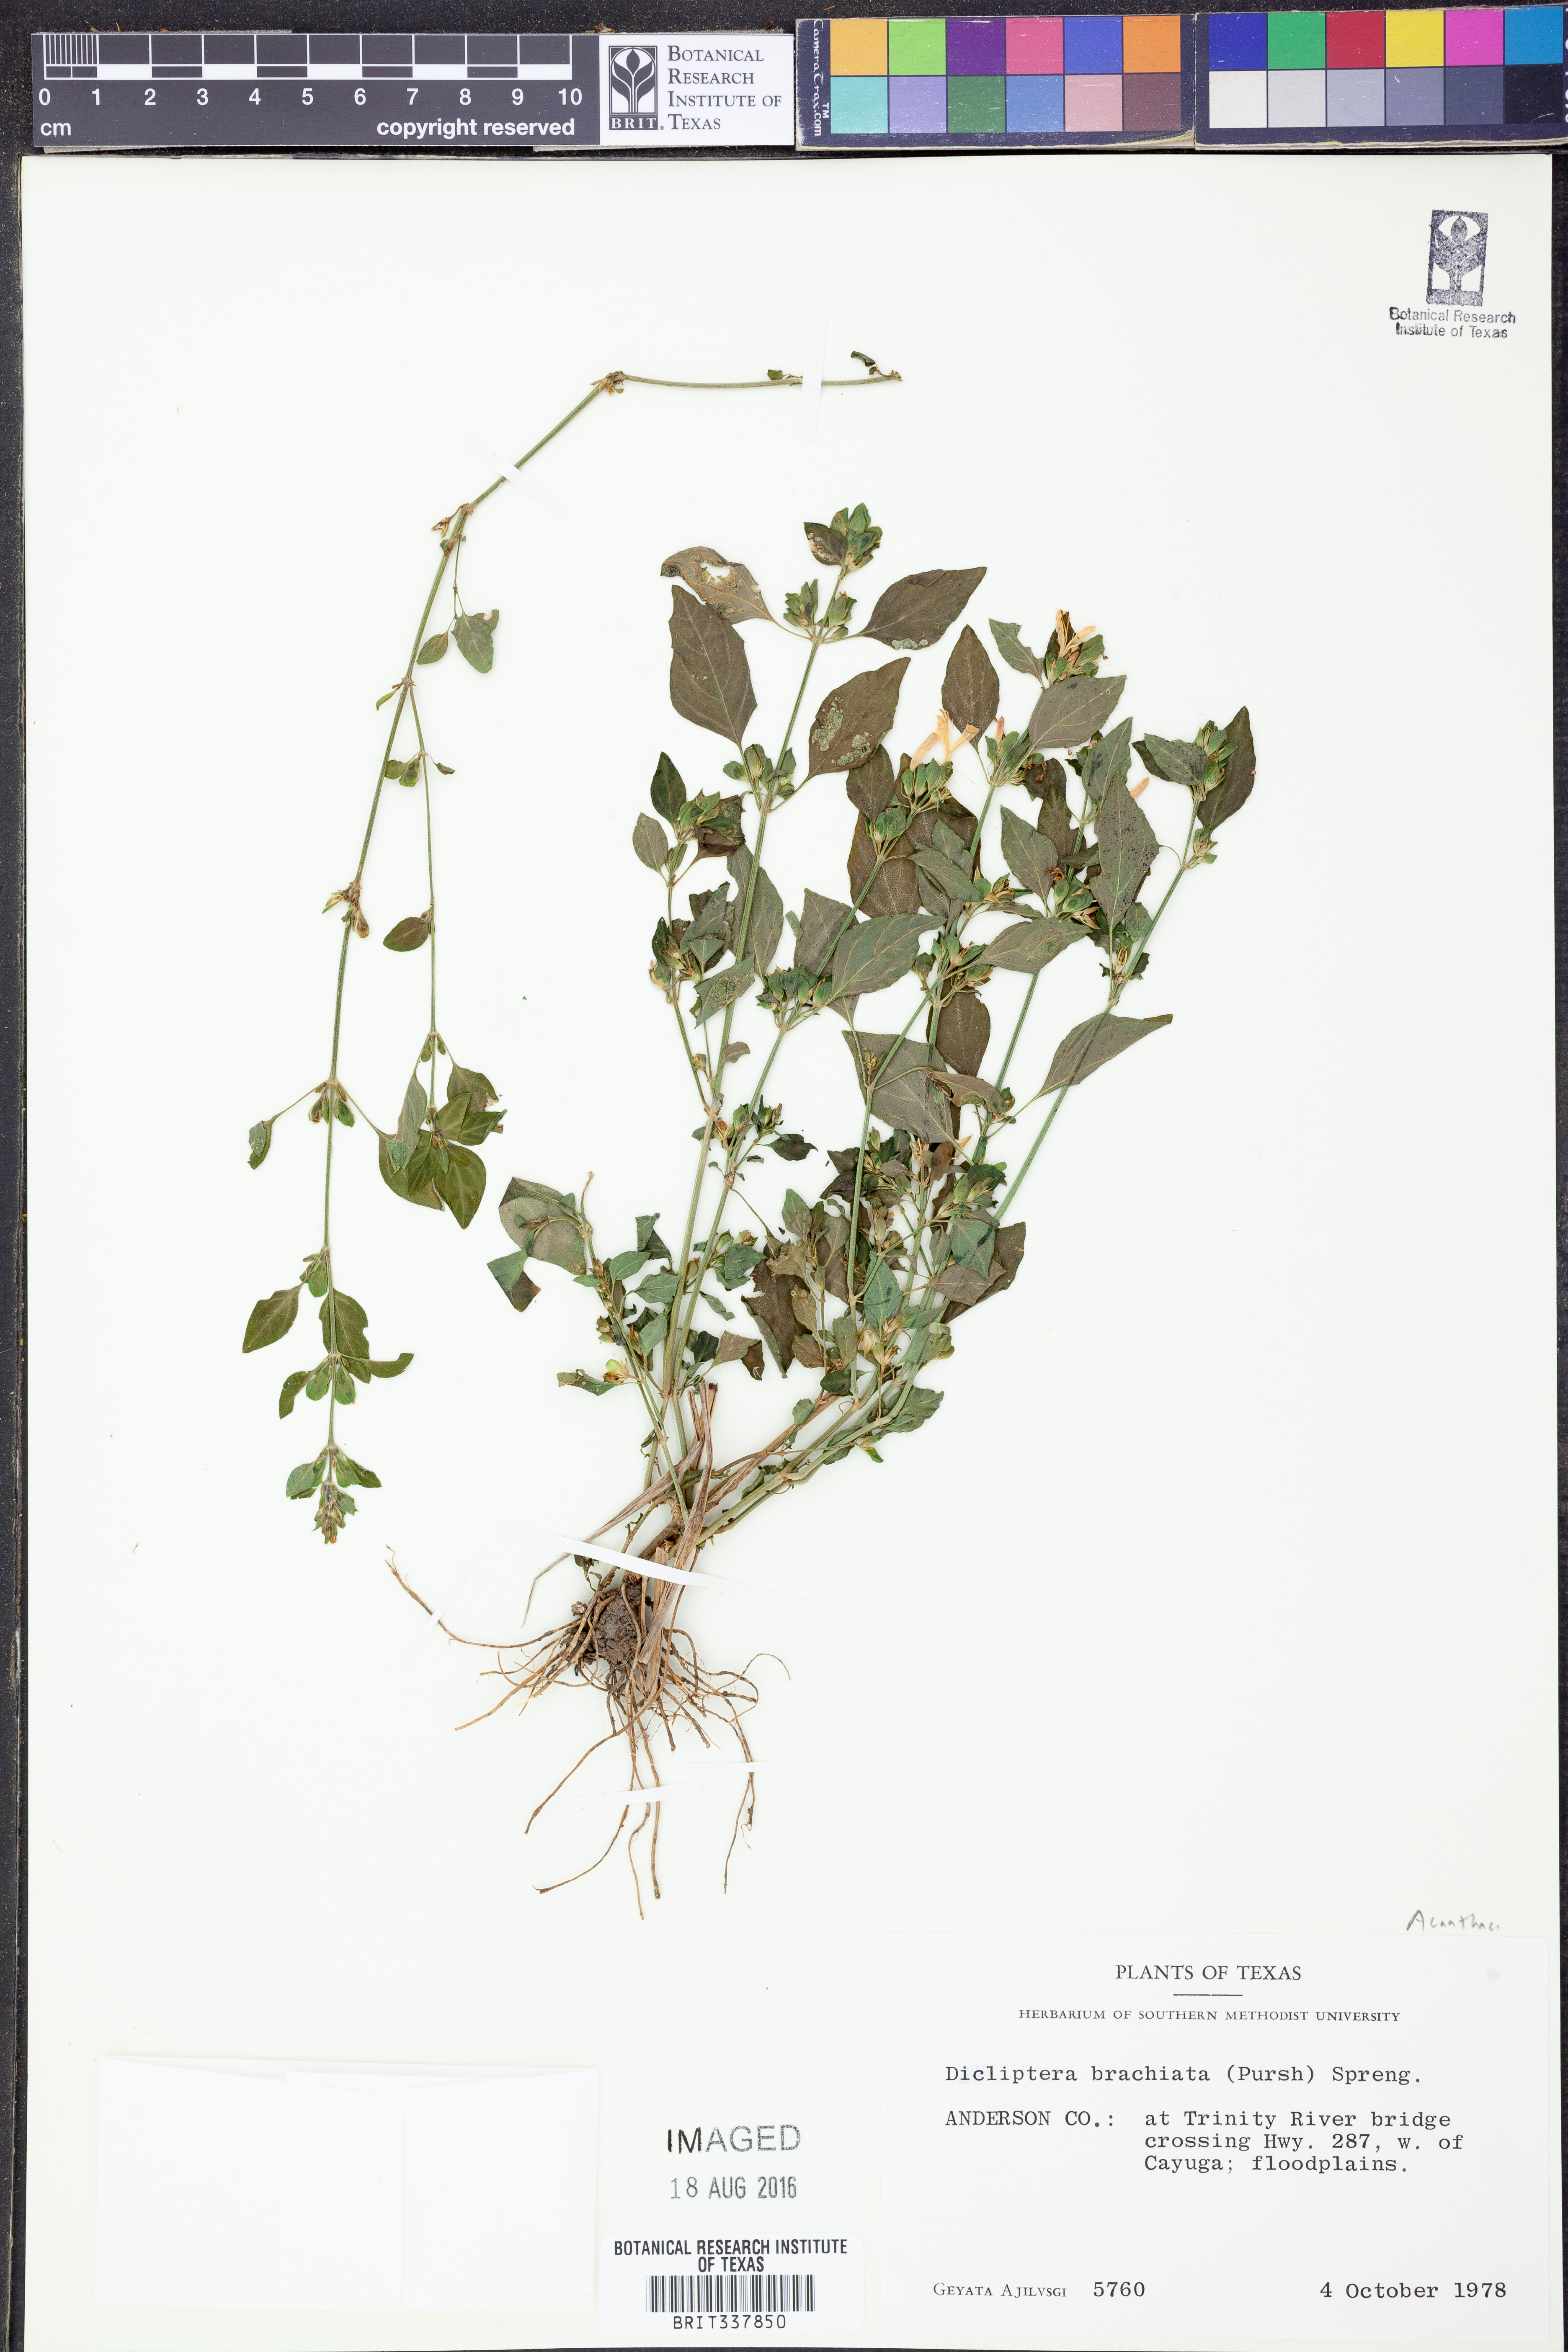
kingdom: Plantae
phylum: Tracheophyta
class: Magnoliopsida
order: Lamiales
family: Acanthaceae
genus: Dicliptera
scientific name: Dicliptera brachiata
